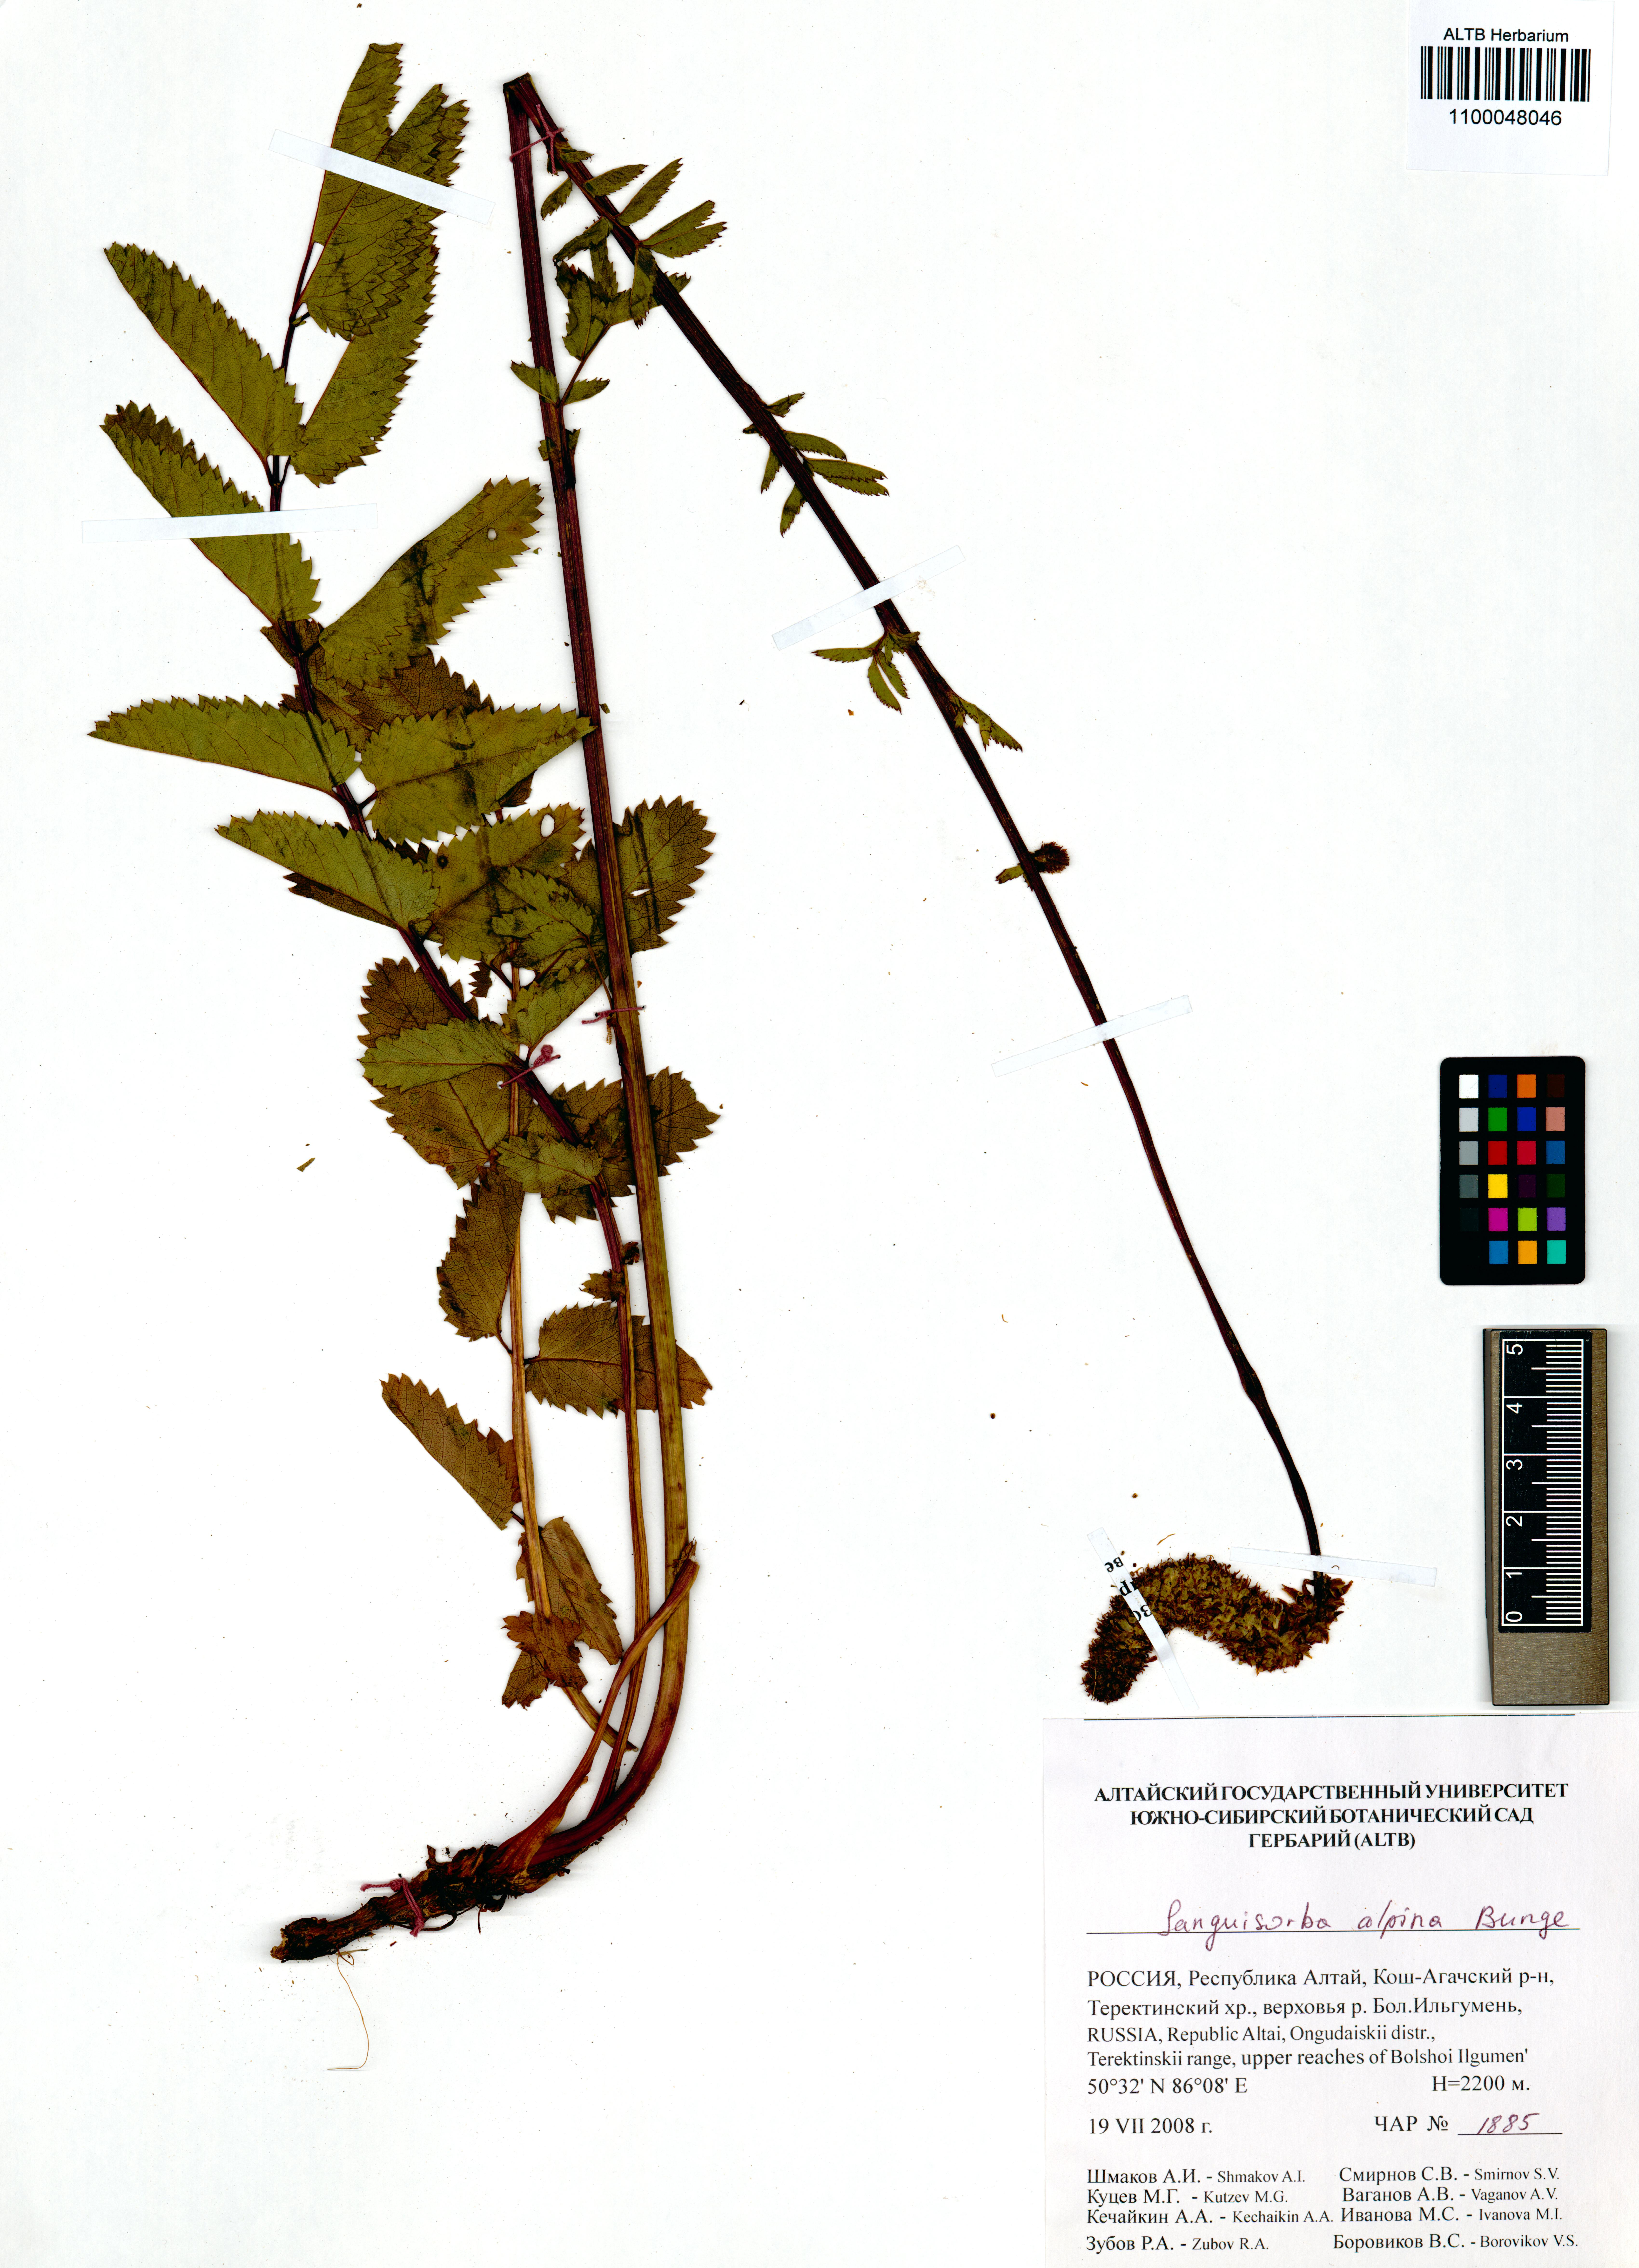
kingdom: Plantae
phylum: Tracheophyta
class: Magnoliopsida
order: Rosales
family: Rosaceae
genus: Sanguisorba
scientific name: Sanguisorba alpina
